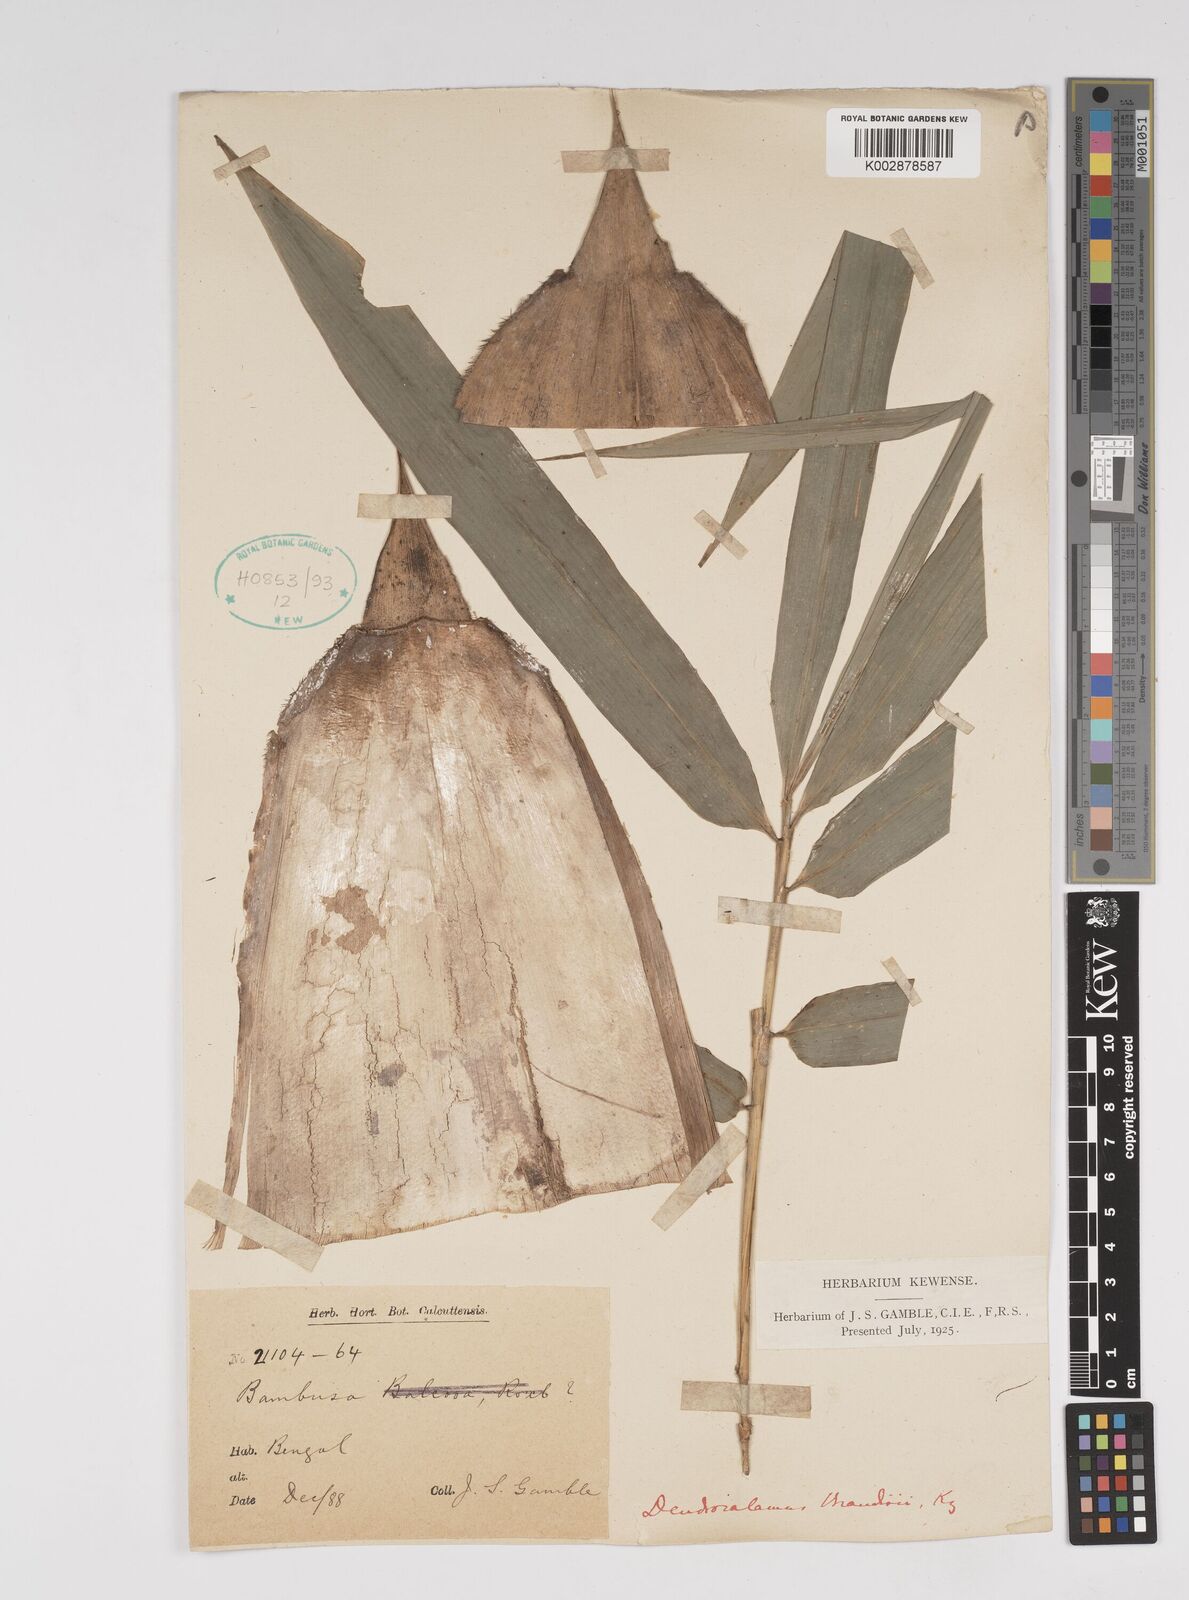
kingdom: Plantae
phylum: Tracheophyta
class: Liliopsida
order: Poales
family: Poaceae
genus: Dendrocalamus
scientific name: Dendrocalamus brandisii
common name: Velvetleaf bamboo
